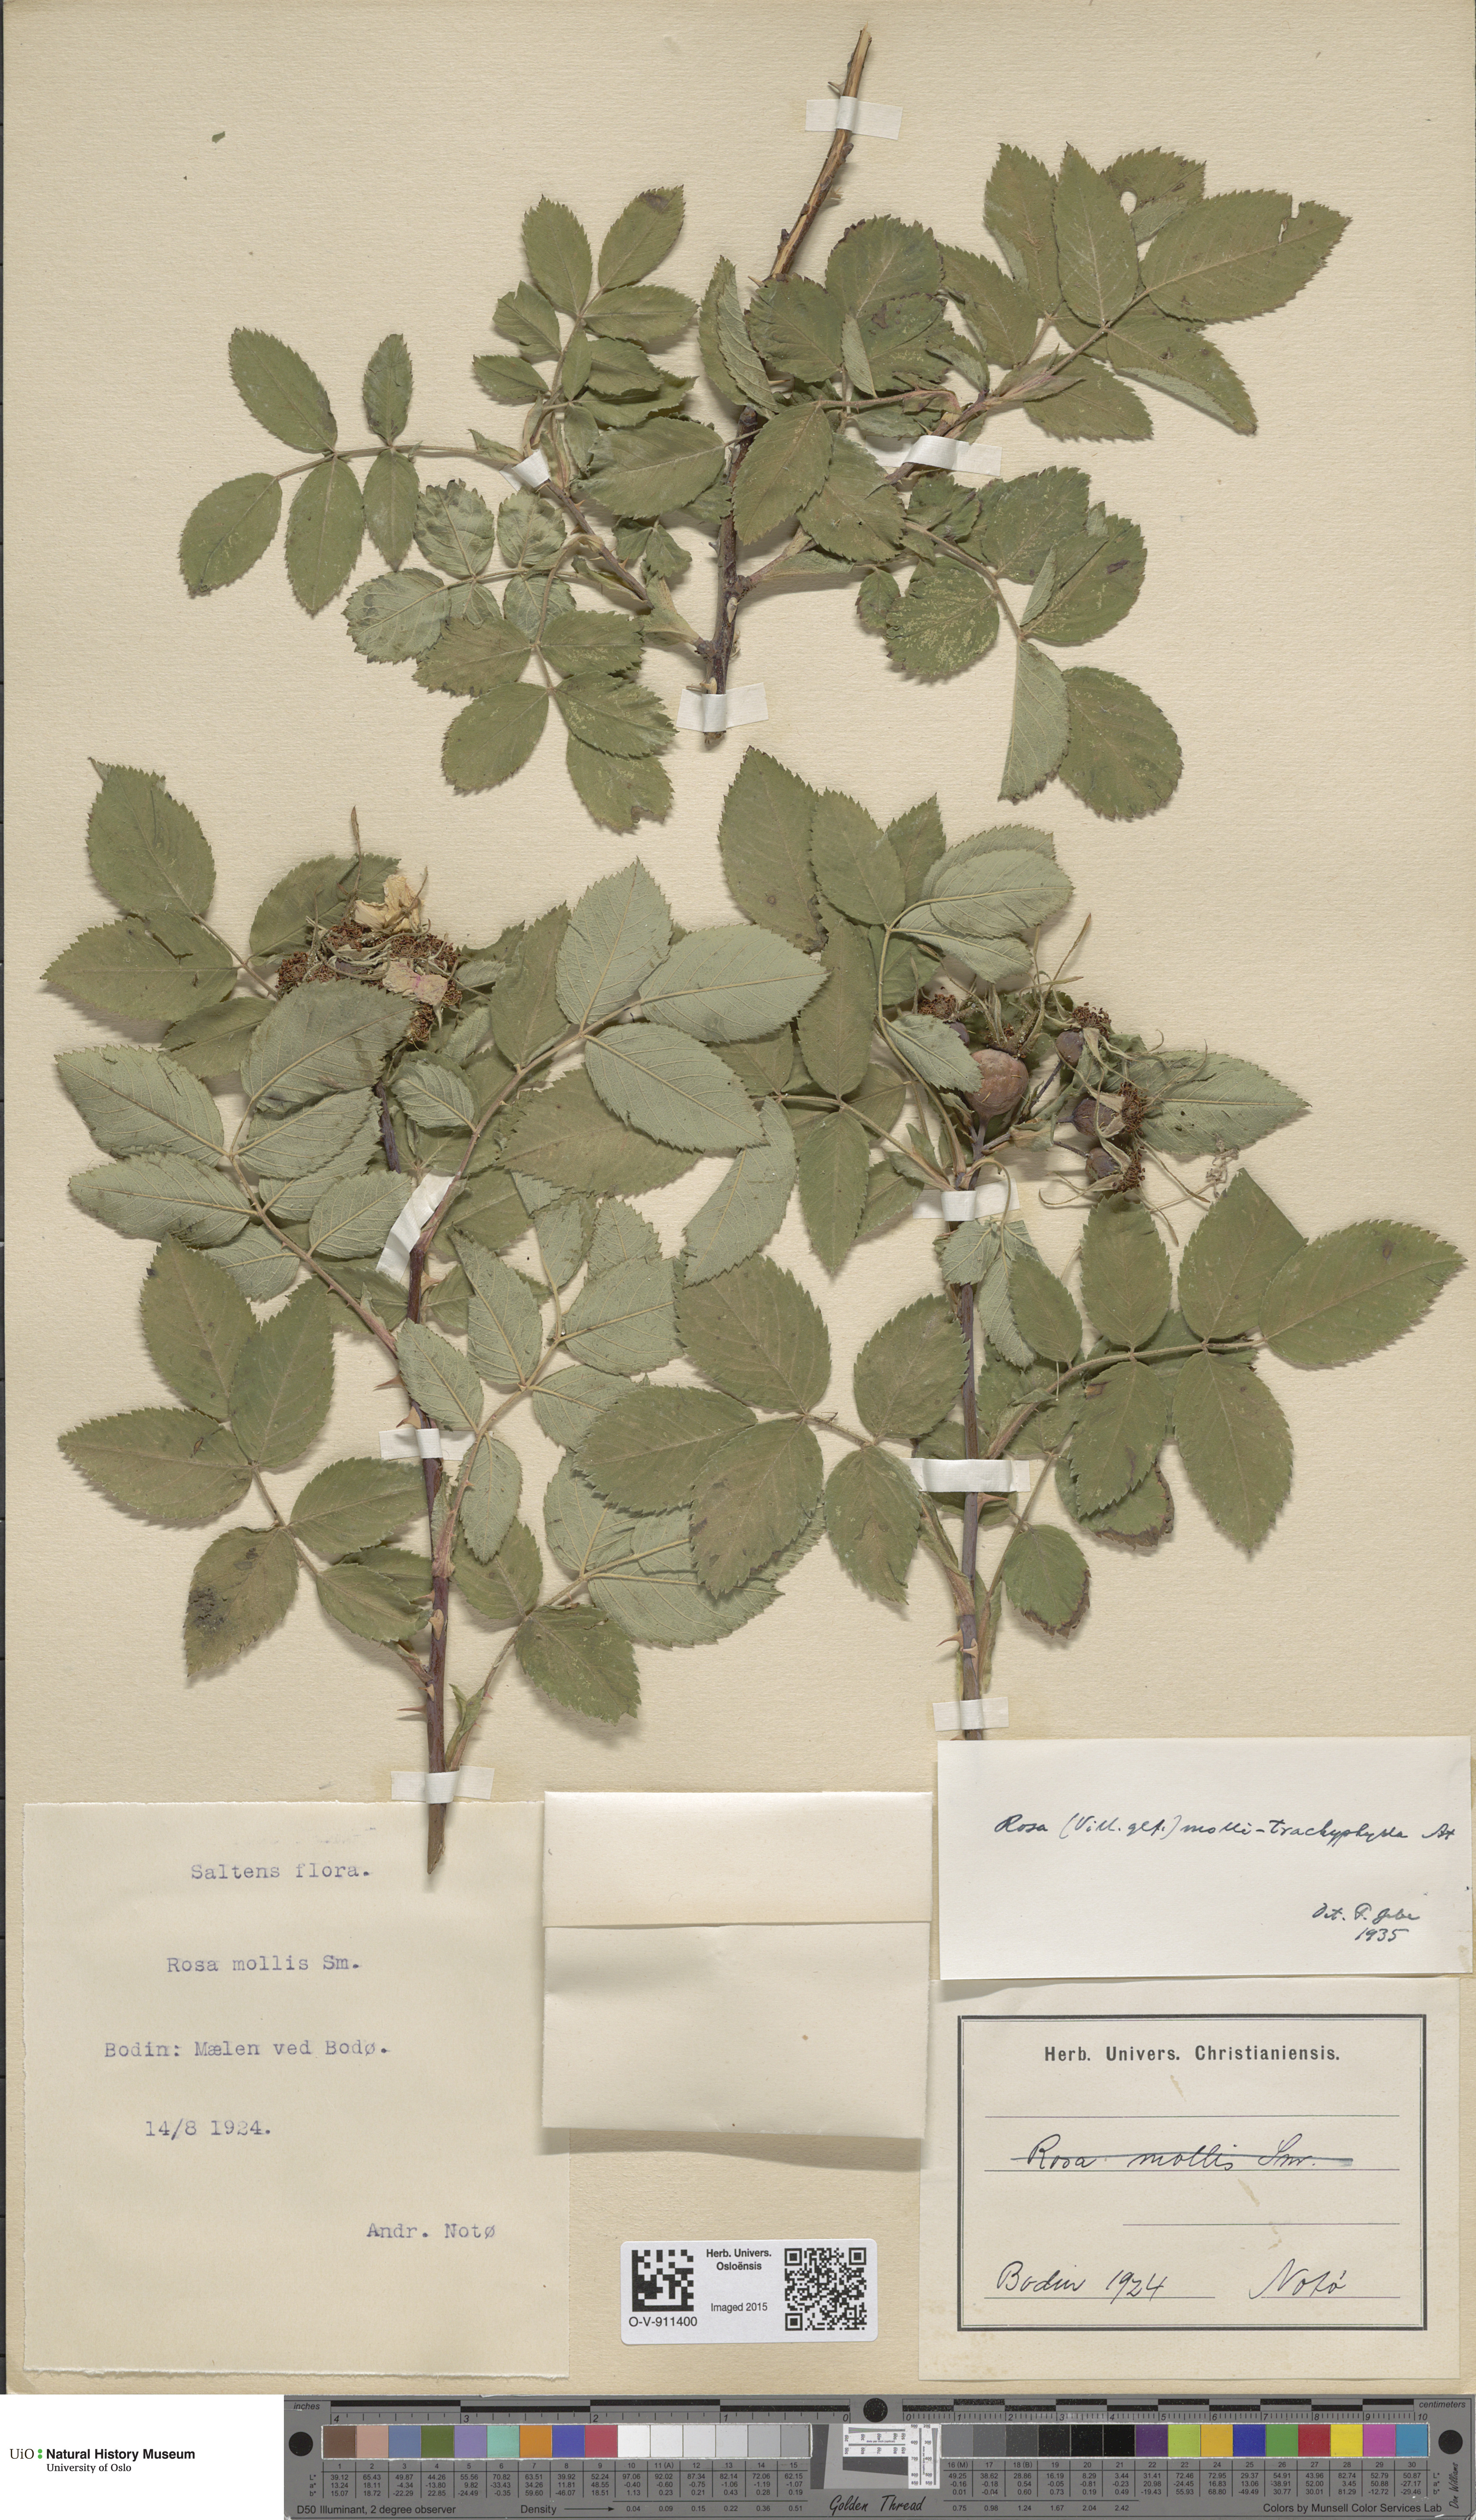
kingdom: Plantae
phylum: Tracheophyta
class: Magnoliopsida
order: Rosales
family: Rosaceae
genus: Rosa
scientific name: Rosa mollis
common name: Rose
